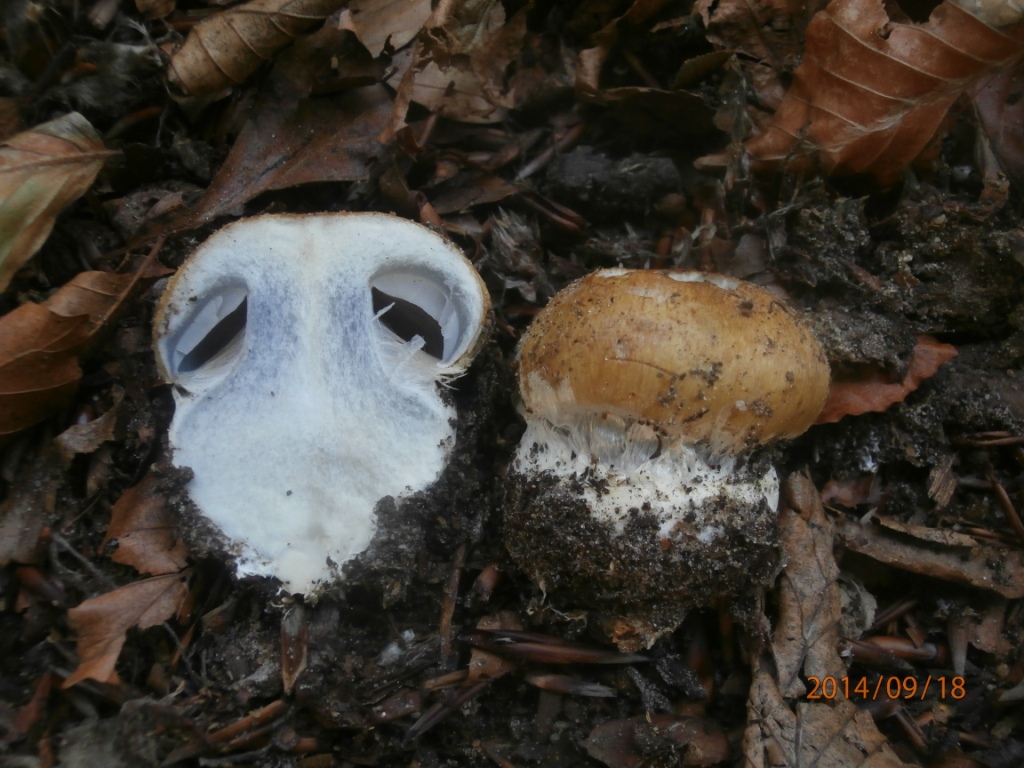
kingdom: Fungi
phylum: Basidiomycota
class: Agaricomycetes
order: Agaricales
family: Cortinariaceae
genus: Cortinarius
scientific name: Cortinarius anserinus
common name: bøge-slørhat
